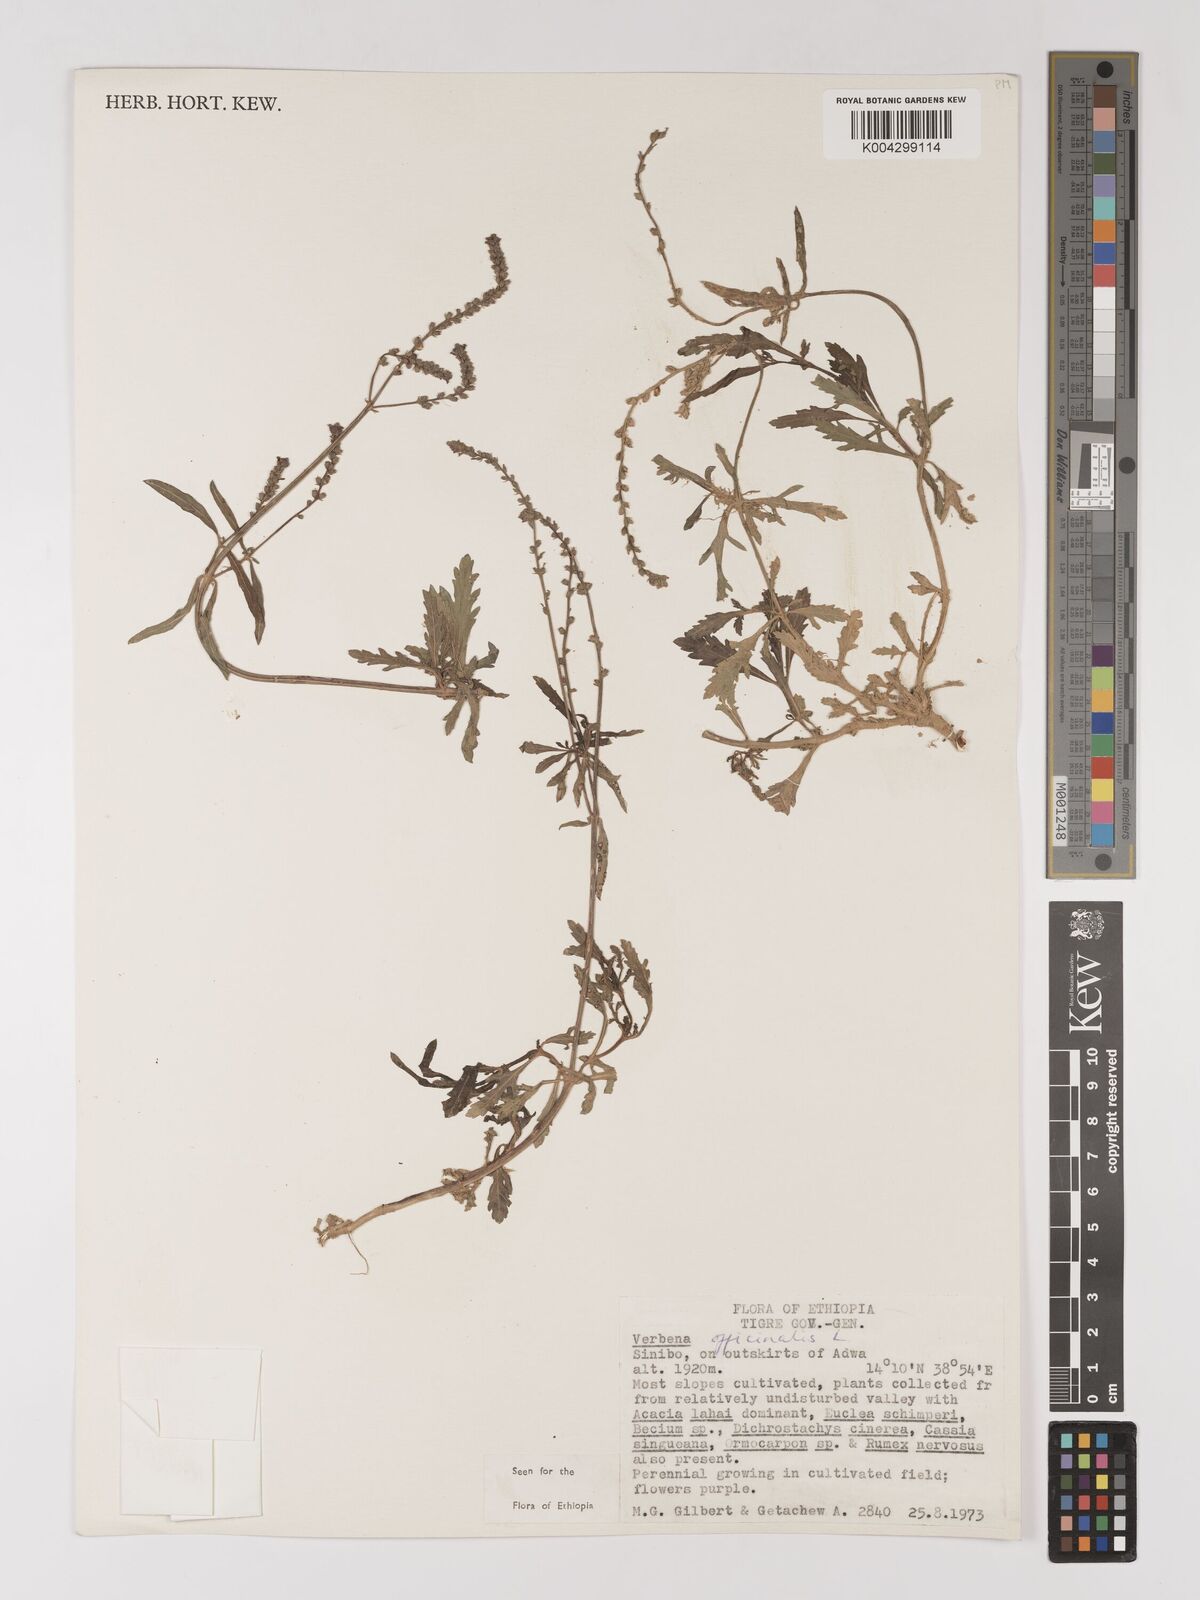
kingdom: Plantae
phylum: Tracheophyta
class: Magnoliopsida
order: Lamiales
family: Verbenaceae
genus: Verbena
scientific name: Verbena officinalis
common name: Vervain
